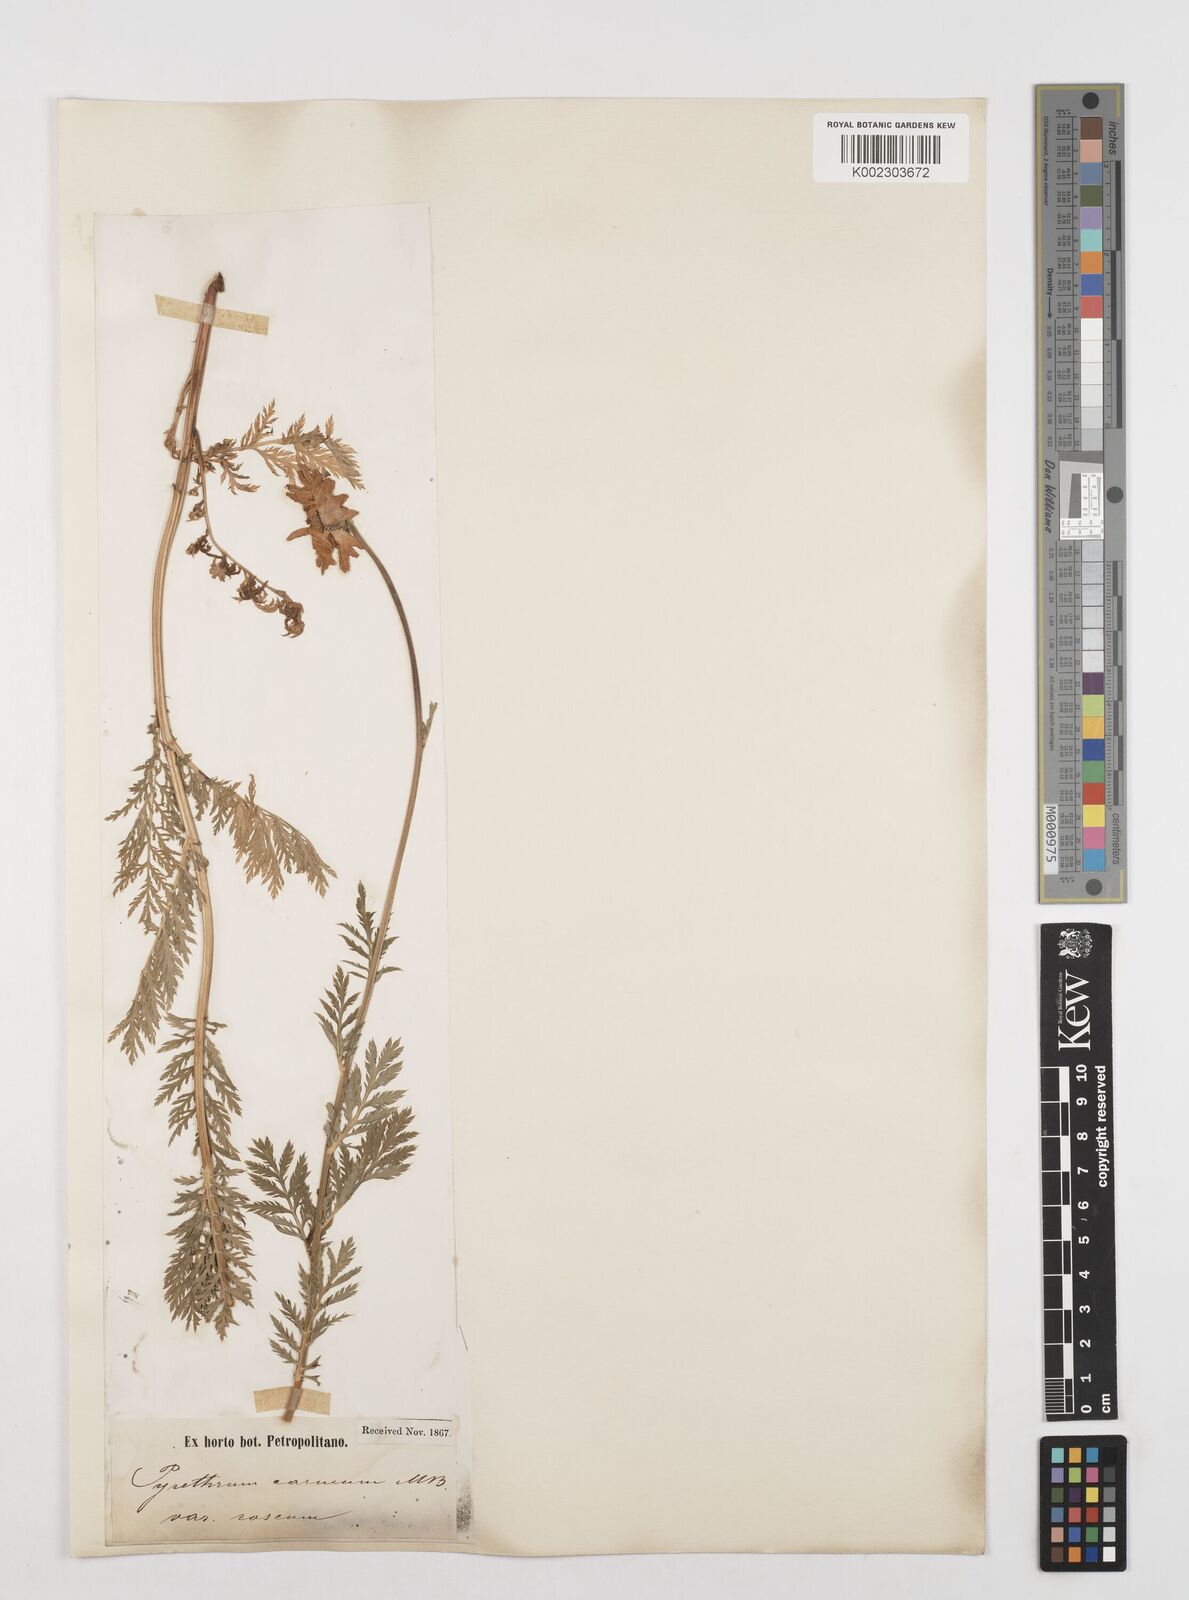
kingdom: Plantae
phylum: Tracheophyta
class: Magnoliopsida
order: Asterales
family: Asteraceae
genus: Tanacetum
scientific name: Tanacetum coccineum
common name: Pyrethum daisy
